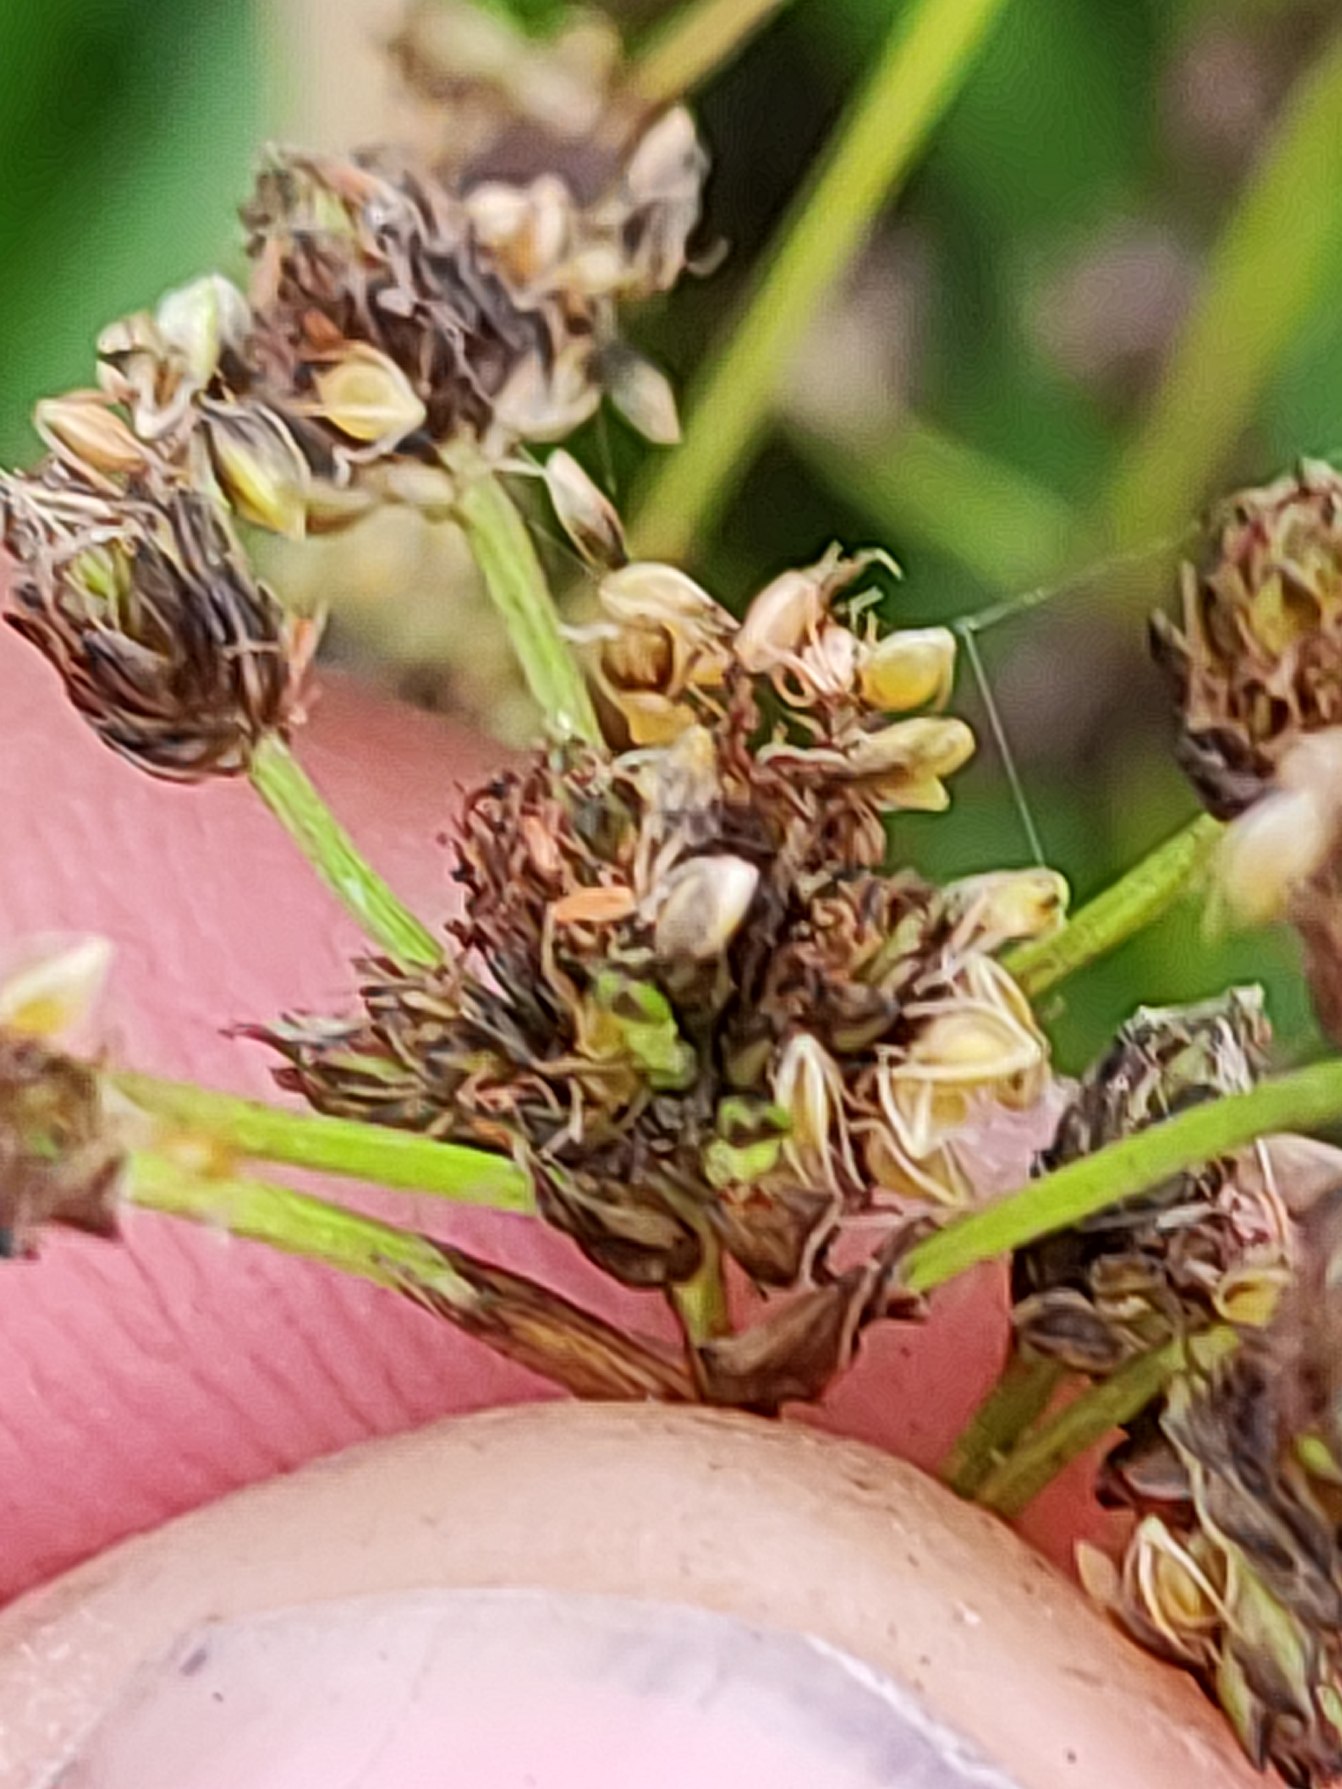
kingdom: Plantae
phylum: Tracheophyta
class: Liliopsida
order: Poales
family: Cyperaceae
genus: Scirpus
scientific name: Scirpus sylvaticus
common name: Skov-kogleaks
